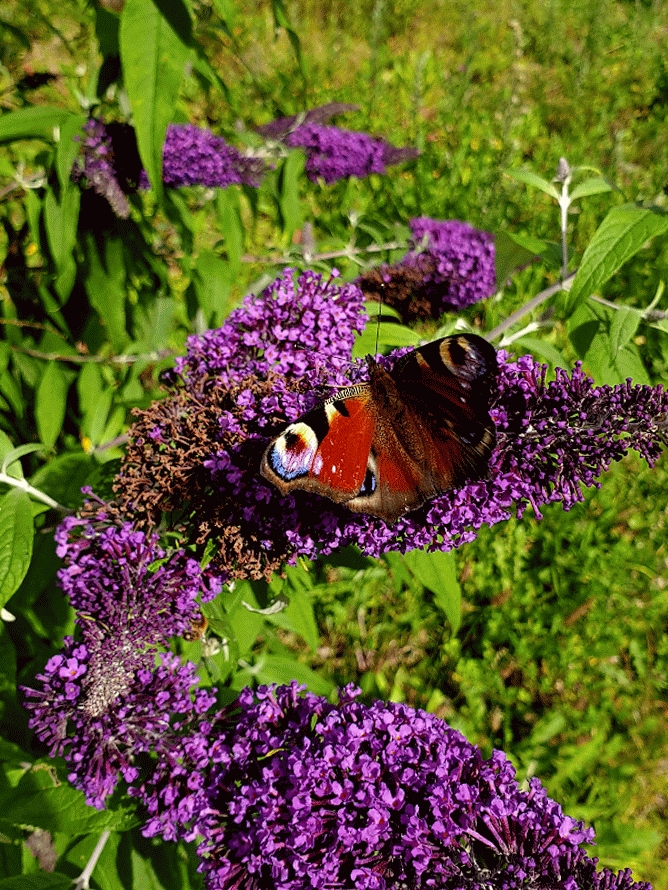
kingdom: Animalia
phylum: Arthropoda
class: Insecta
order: Lepidoptera
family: Nymphalidae
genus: Aglais
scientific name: Aglais io
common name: Dagpåfugleøje
